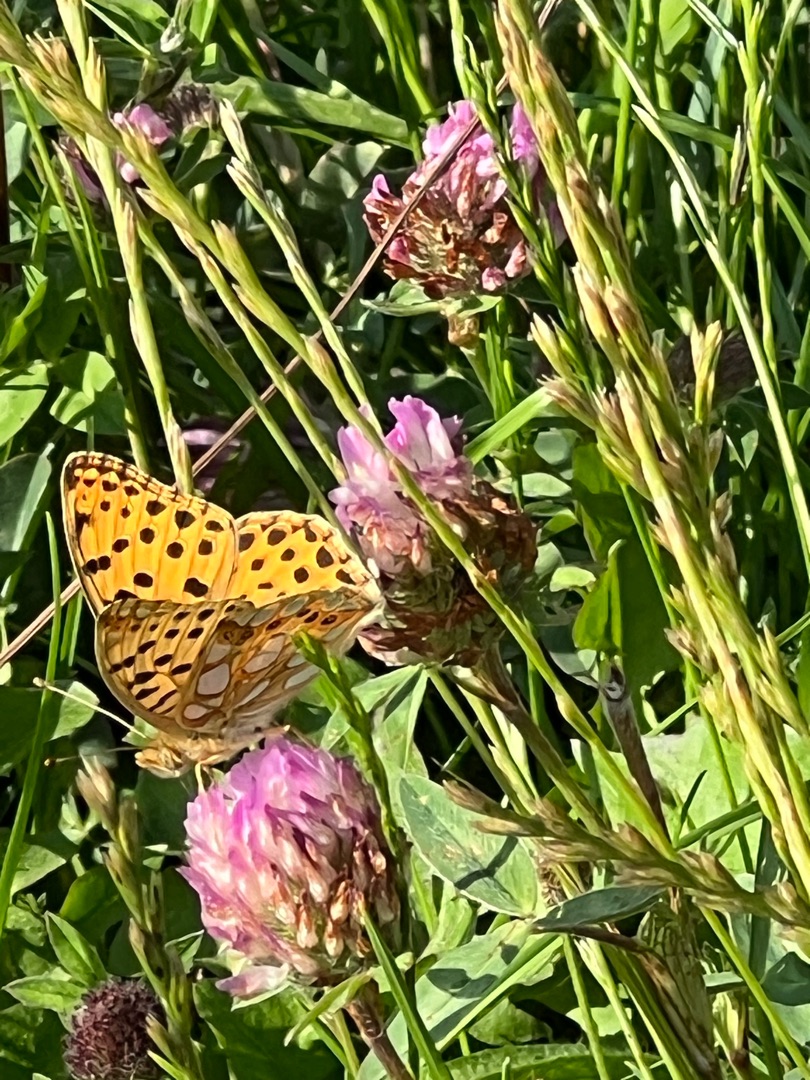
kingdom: Animalia
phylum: Arthropoda
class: Insecta
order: Lepidoptera
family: Nymphalidae
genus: Issoria
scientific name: Issoria lathonia
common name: Storplettet perlemorsommerfugl
